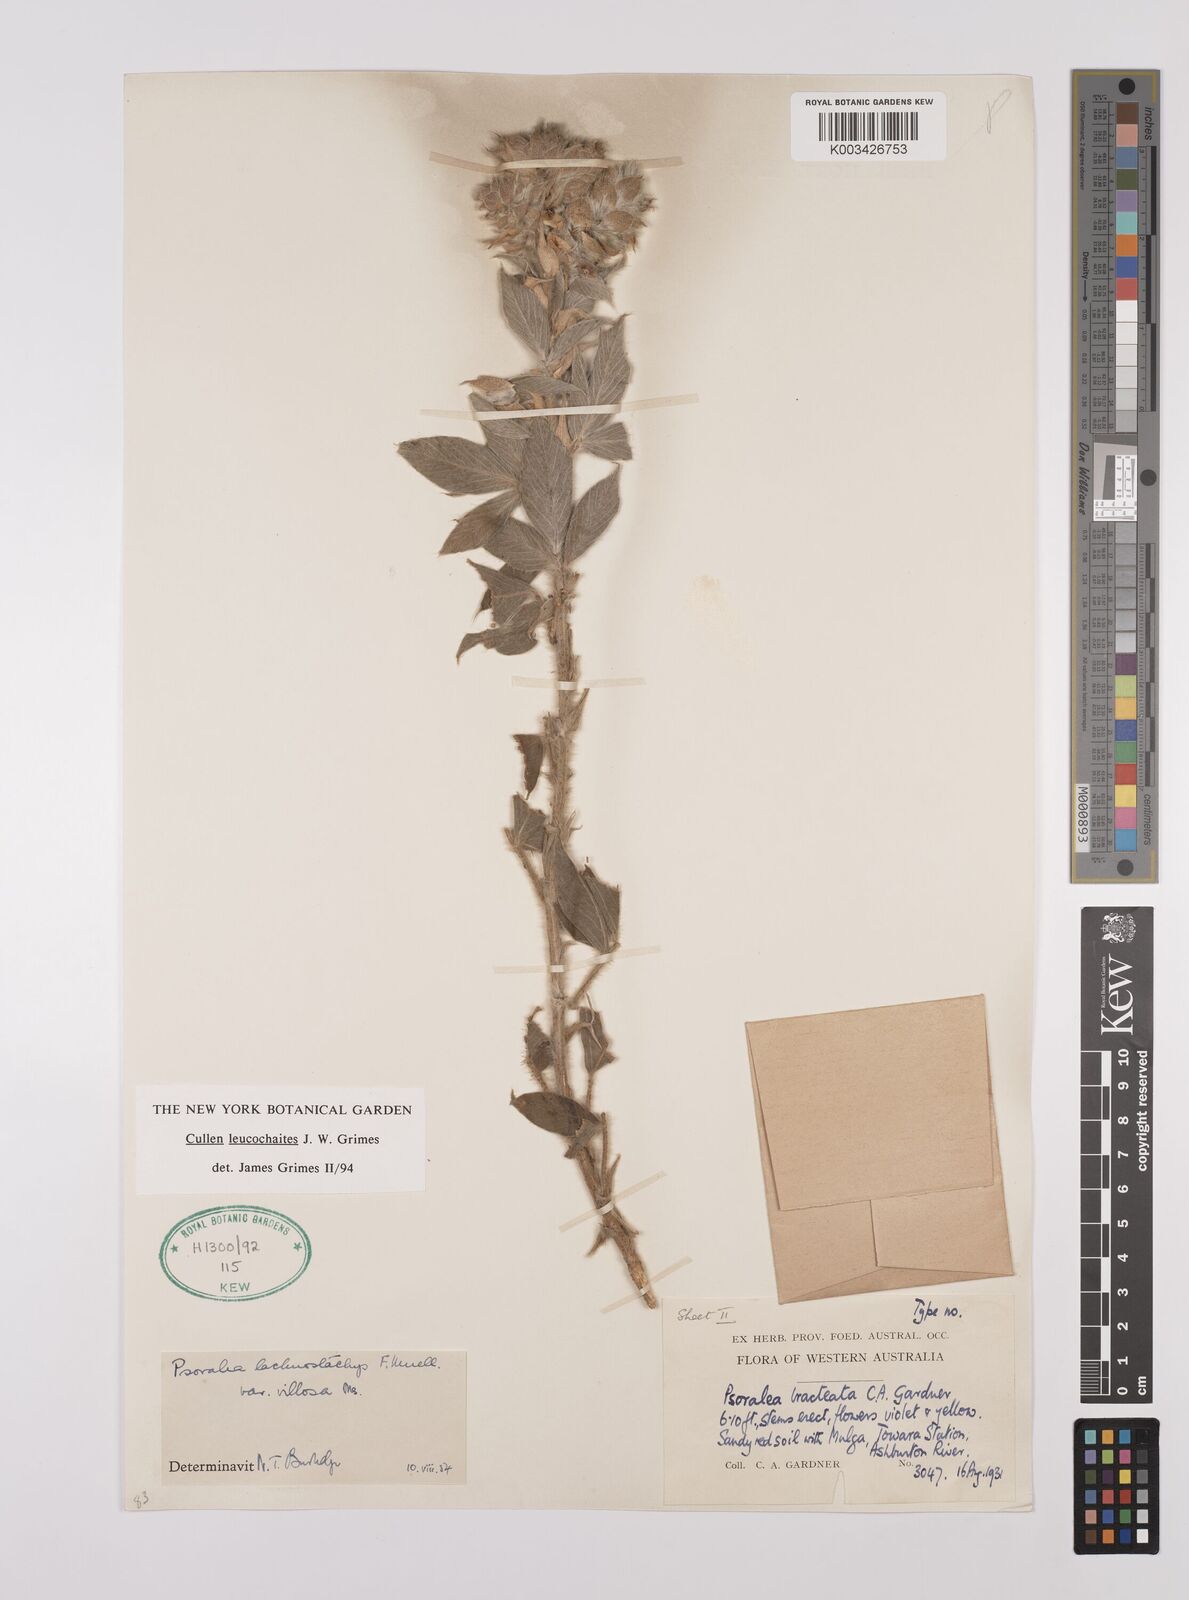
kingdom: Plantae
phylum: Tracheophyta
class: Magnoliopsida
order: Fabales
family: Fabaceae
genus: Cullen
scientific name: Cullen leucochaites
